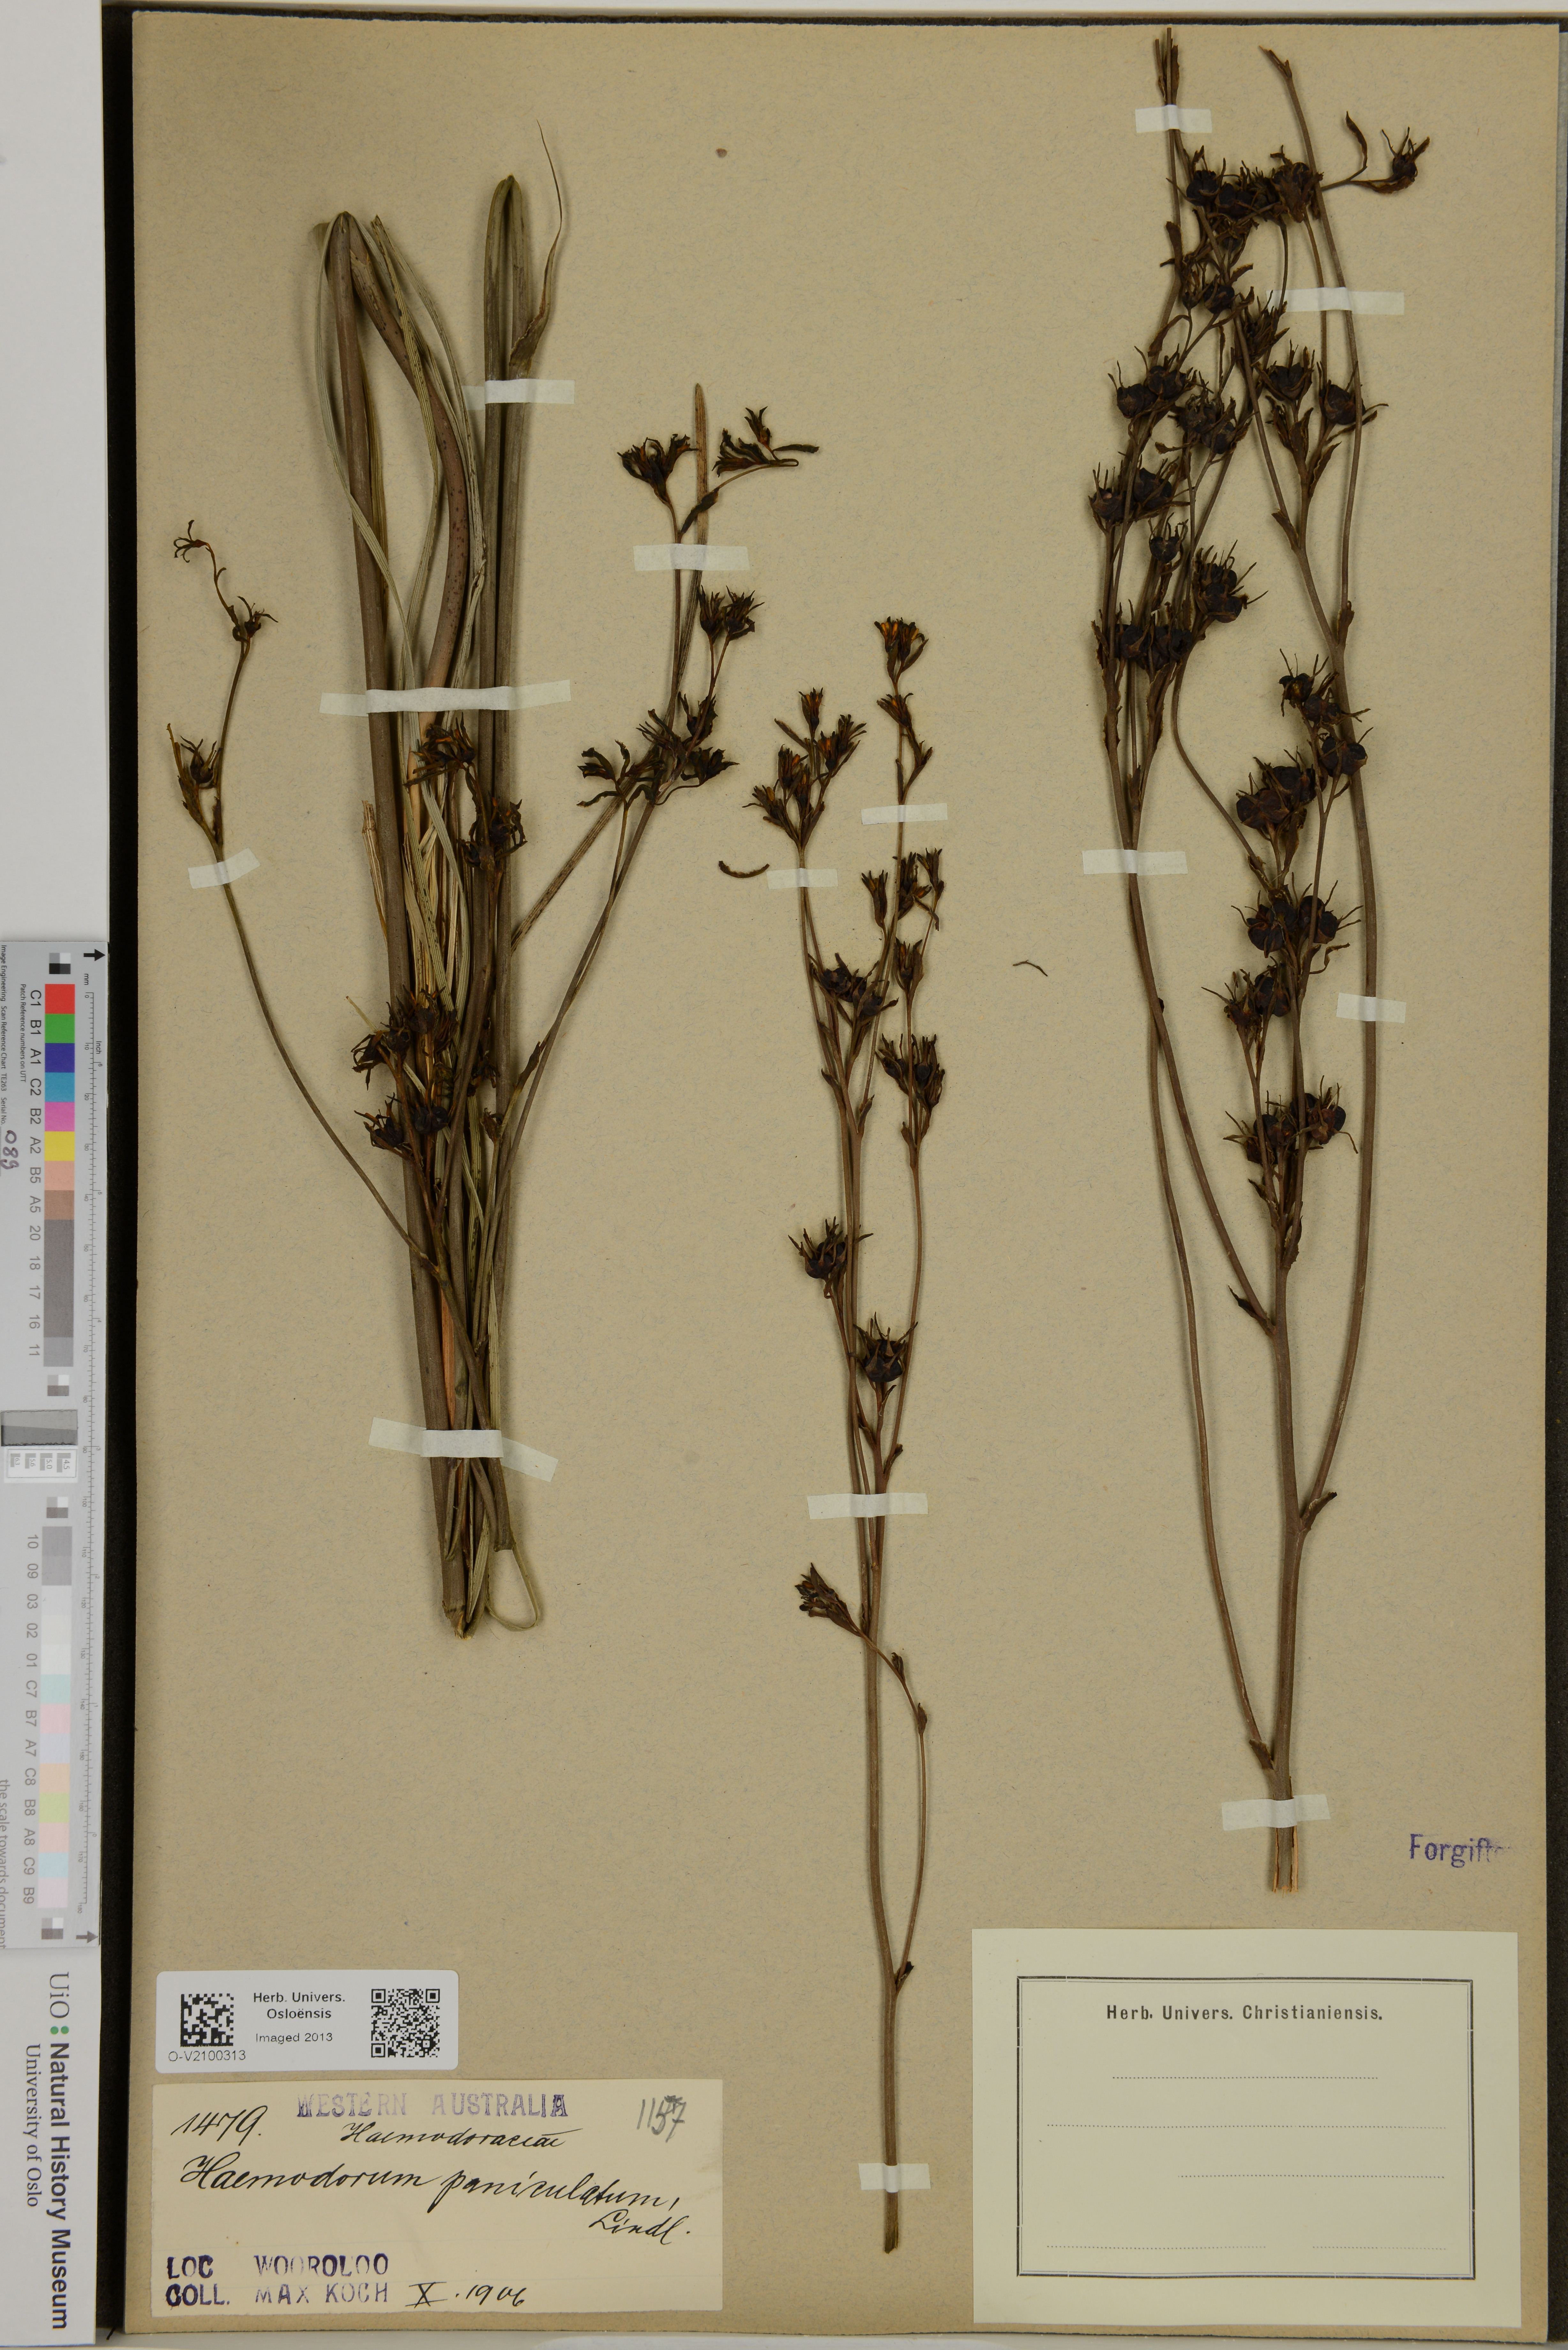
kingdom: Plantae
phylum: Tracheophyta
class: Liliopsida
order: Commelinales
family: Haemodoraceae
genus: Haemodorum
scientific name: Haemodorum paniculatum
